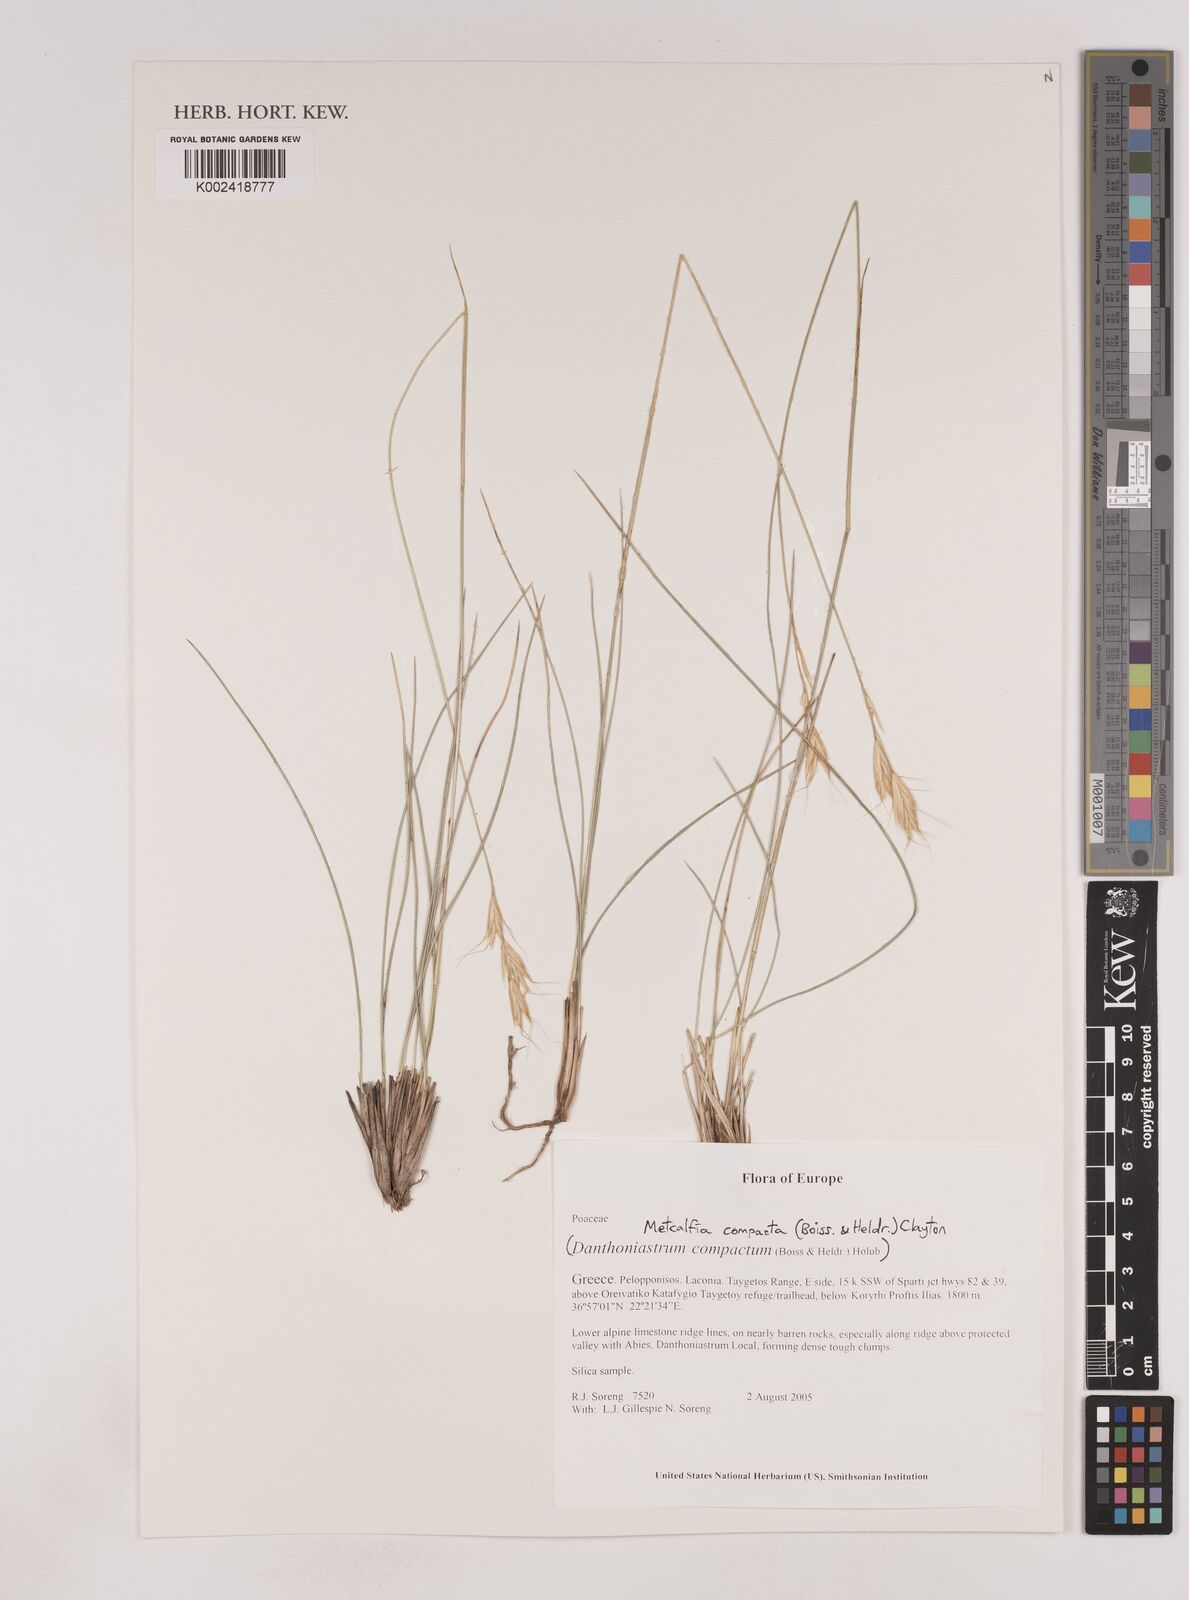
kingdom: Plantae
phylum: Tracheophyta
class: Liliopsida
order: Poales
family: Poaceae
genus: Danthoniastrum
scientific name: Danthoniastrum compactum
